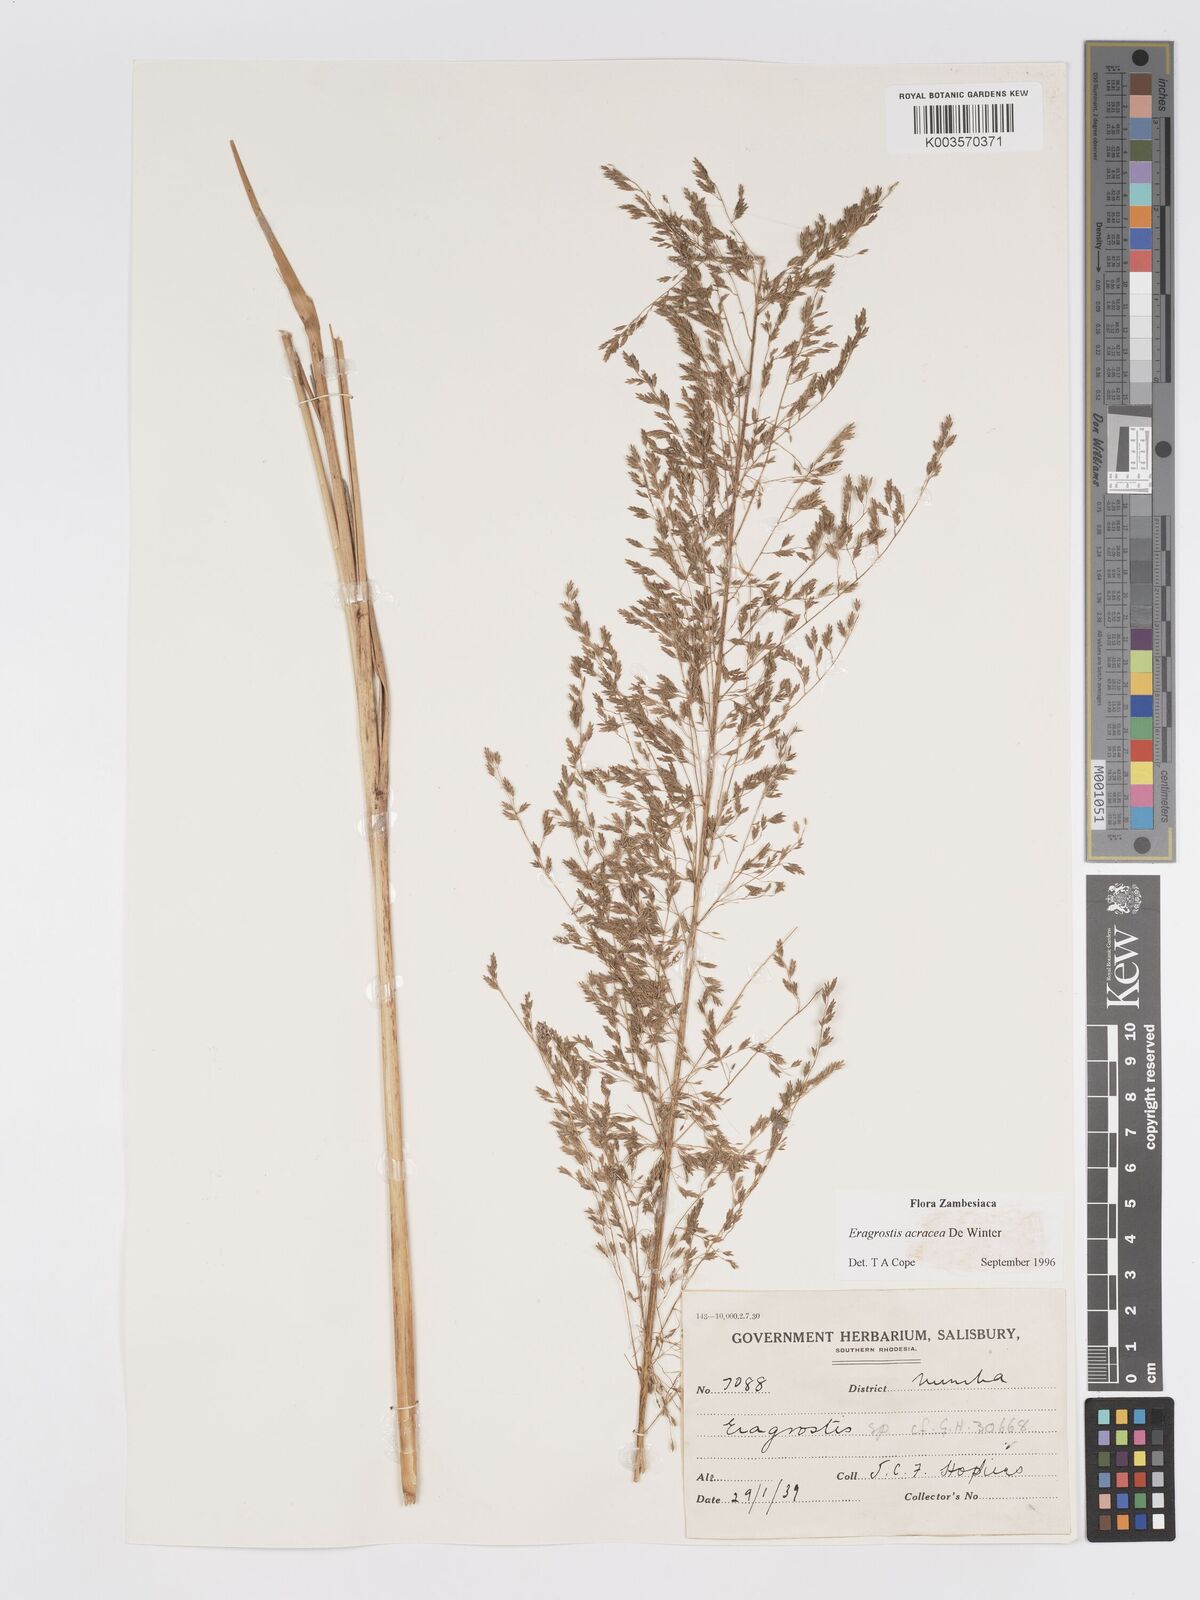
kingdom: Plantae
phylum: Tracheophyta
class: Liliopsida
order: Poales
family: Poaceae
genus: Eragrostis
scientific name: Eragrostis acraea
